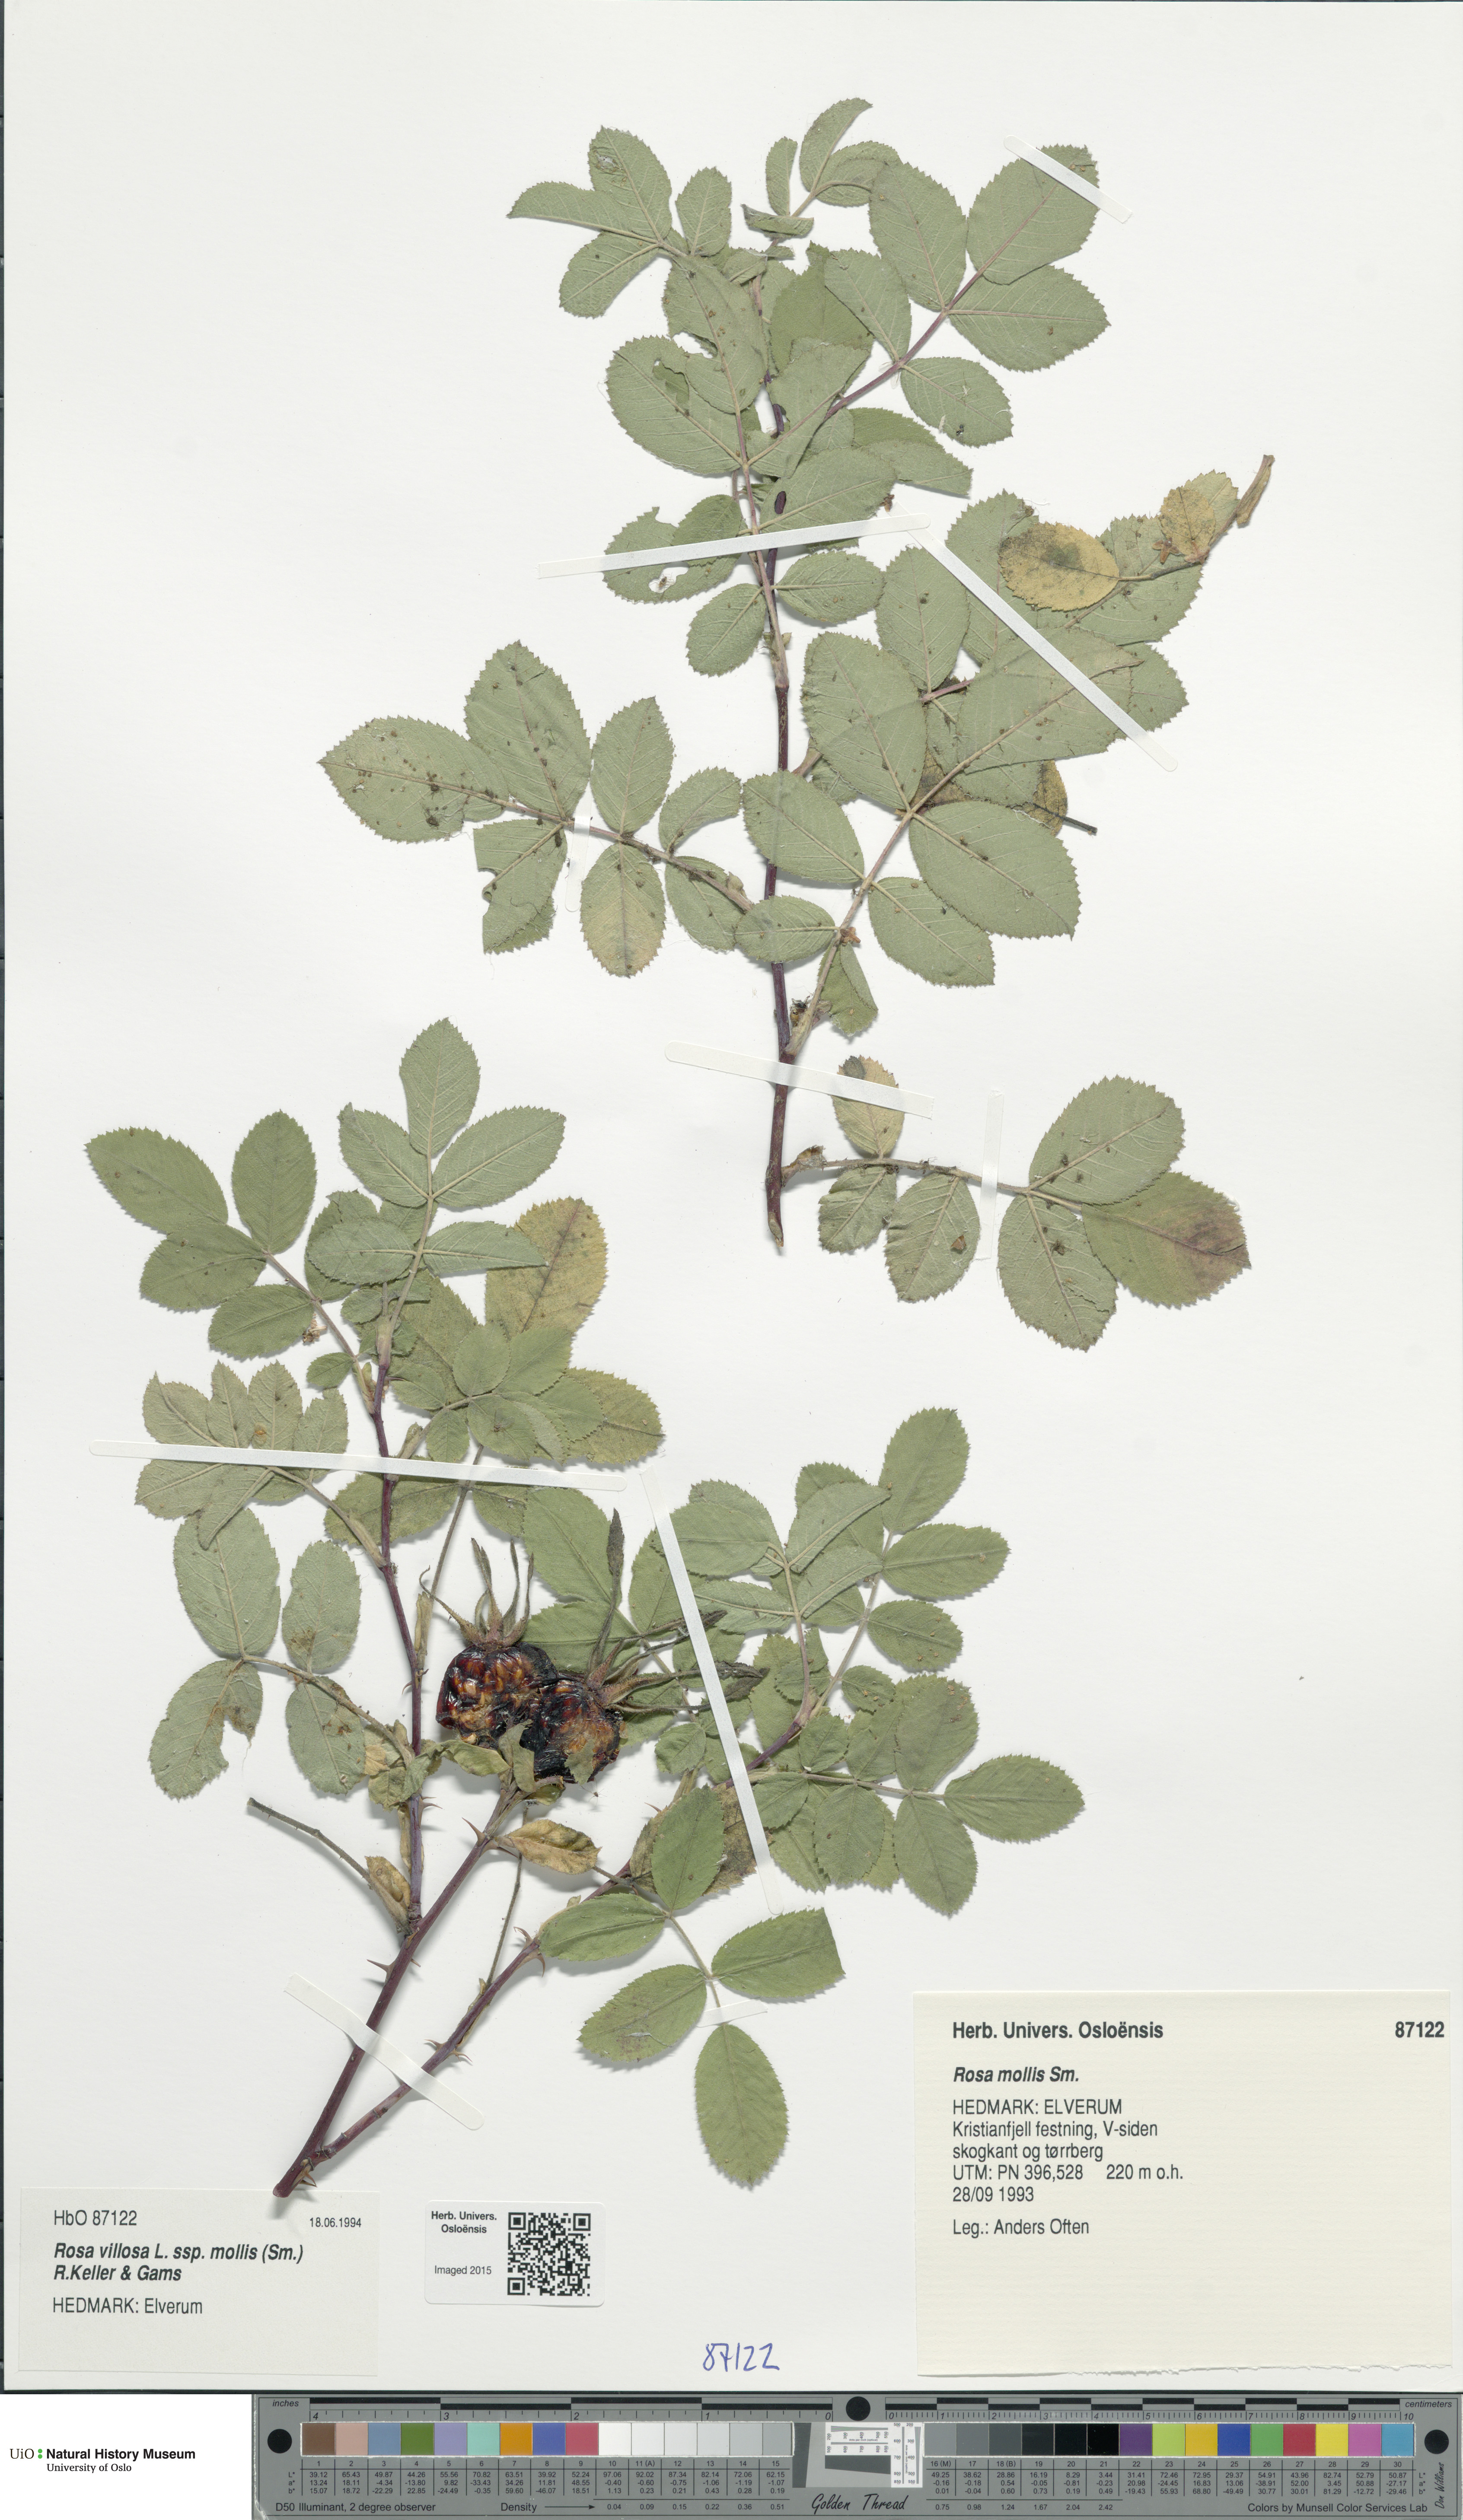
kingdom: Plantae
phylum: Tracheophyta
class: Magnoliopsida
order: Rosales
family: Rosaceae
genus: Rosa
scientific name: Rosa mollis
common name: Rose
